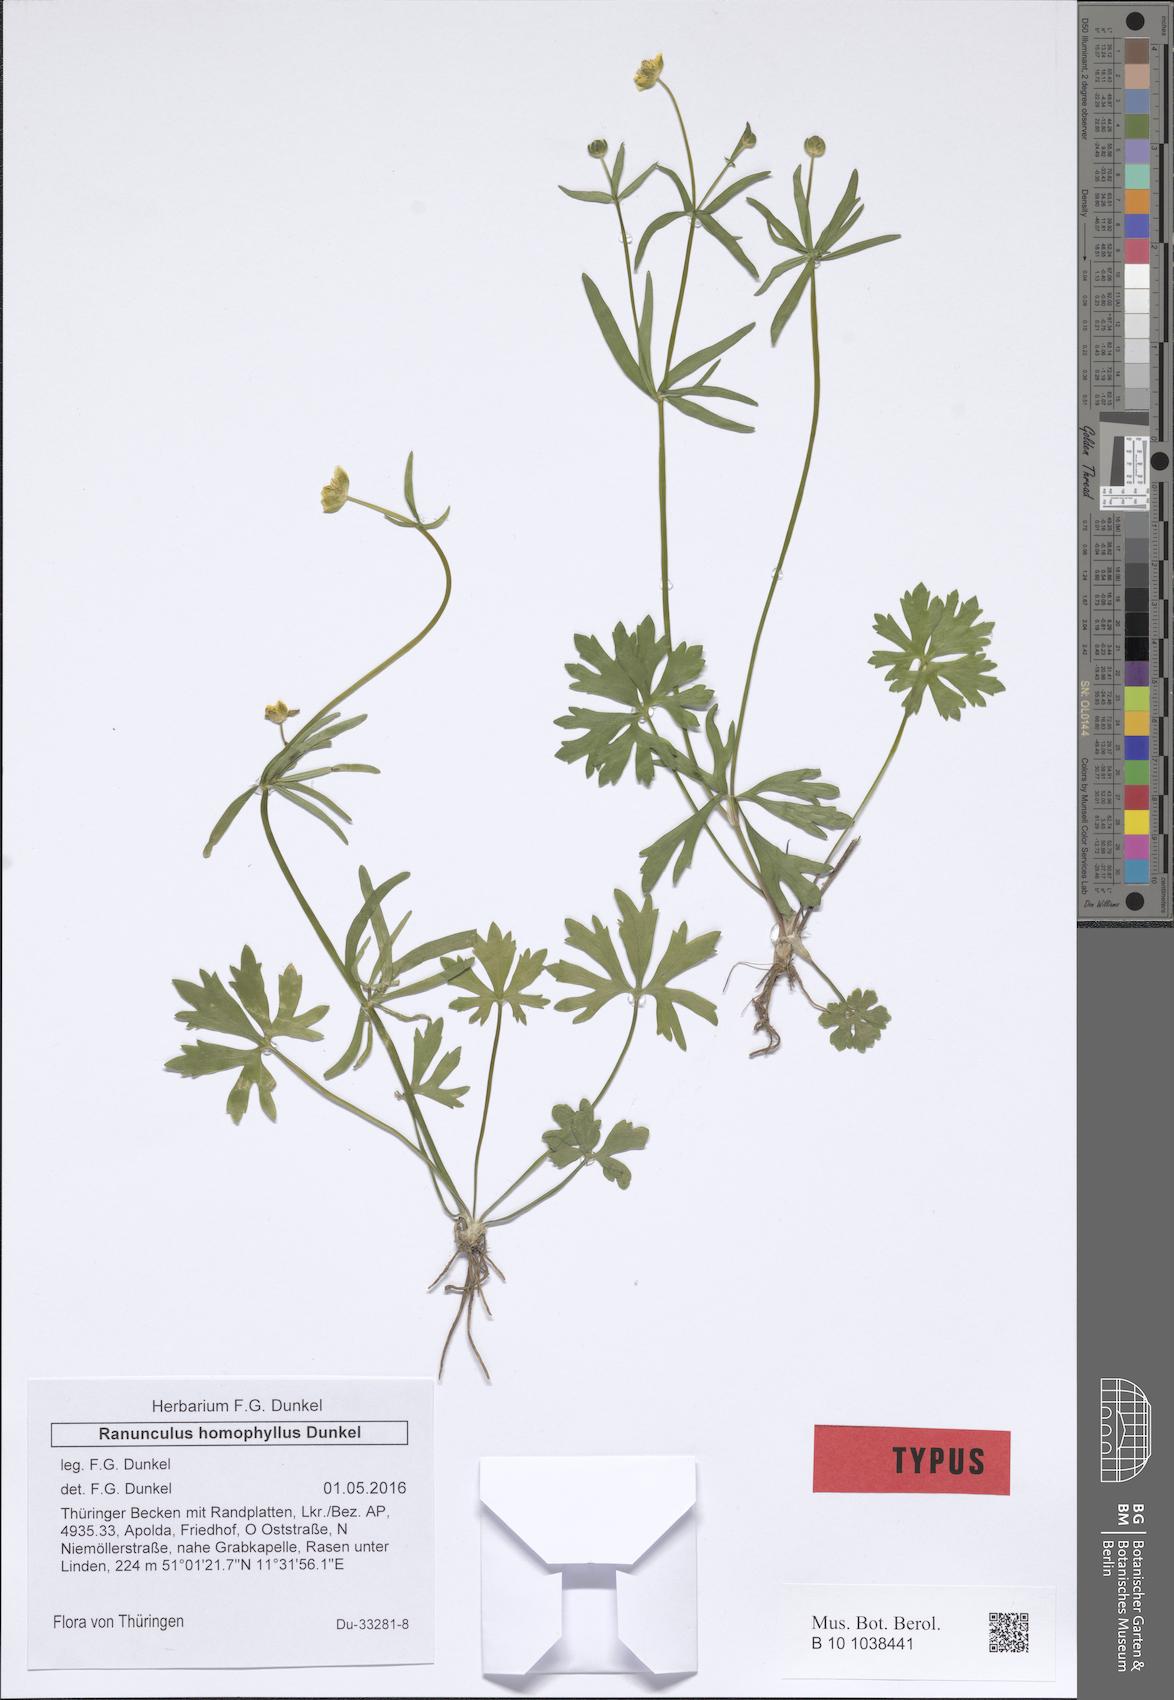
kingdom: Plantae
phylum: Tracheophyta
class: Magnoliopsida
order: Ranunculales
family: Ranunculaceae
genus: Ranunculus
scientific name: Ranunculus homophyllus
